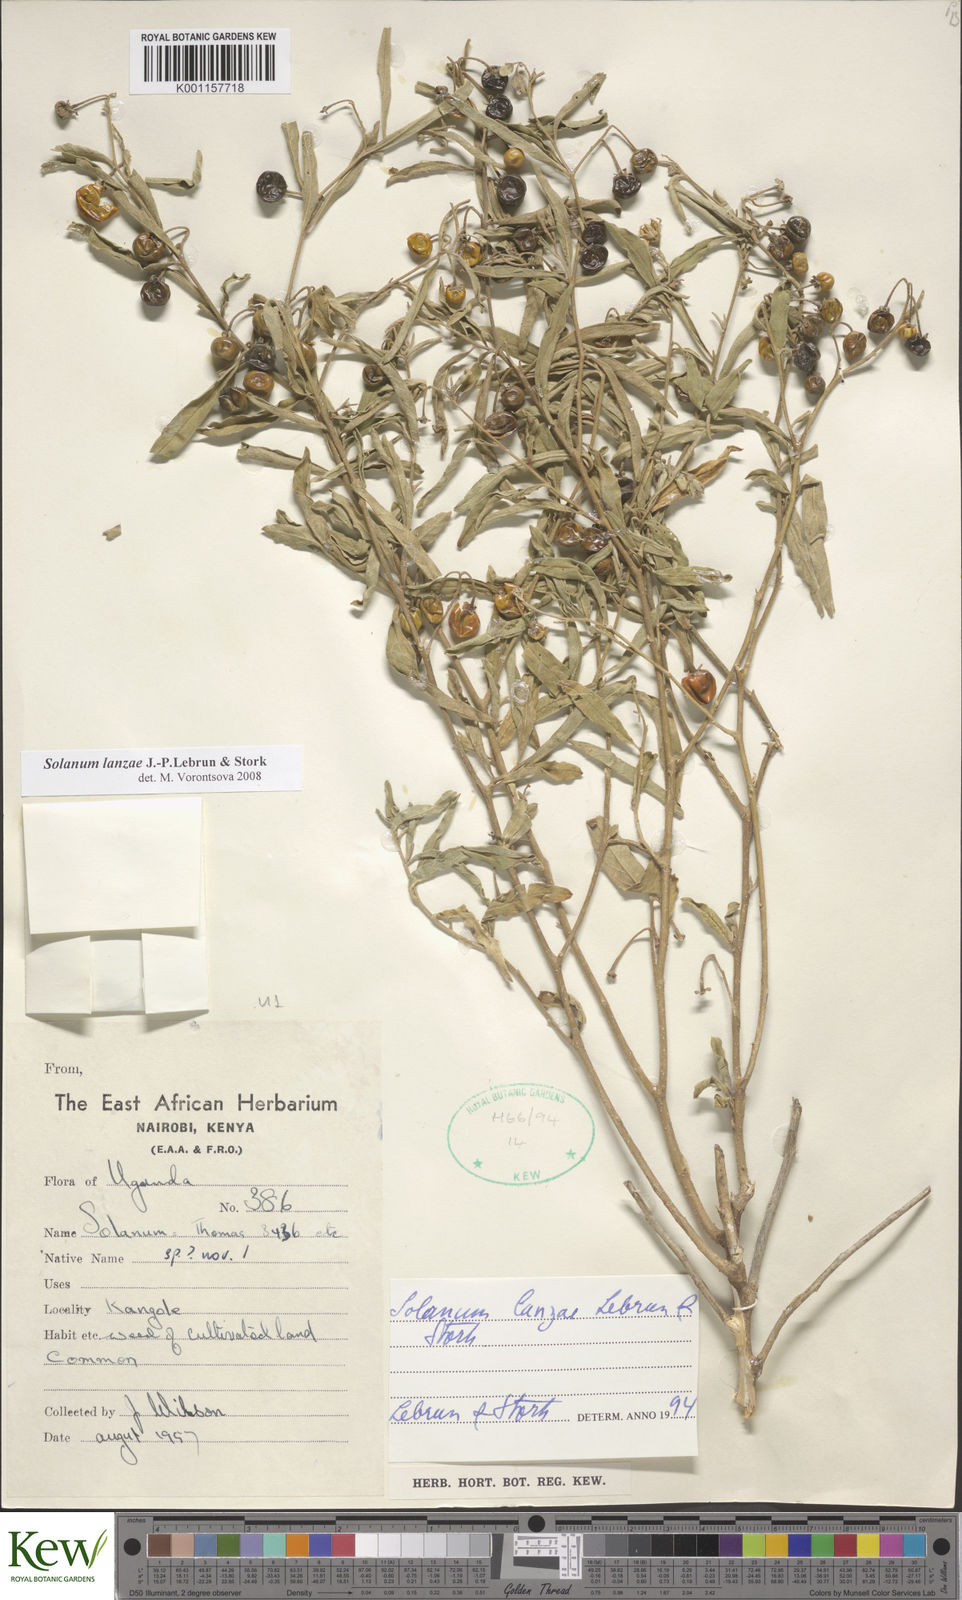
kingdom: Plantae
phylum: Tracheophyta
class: Magnoliopsida
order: Solanales
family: Solanaceae
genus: Solanum
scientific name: Solanum lanzae
